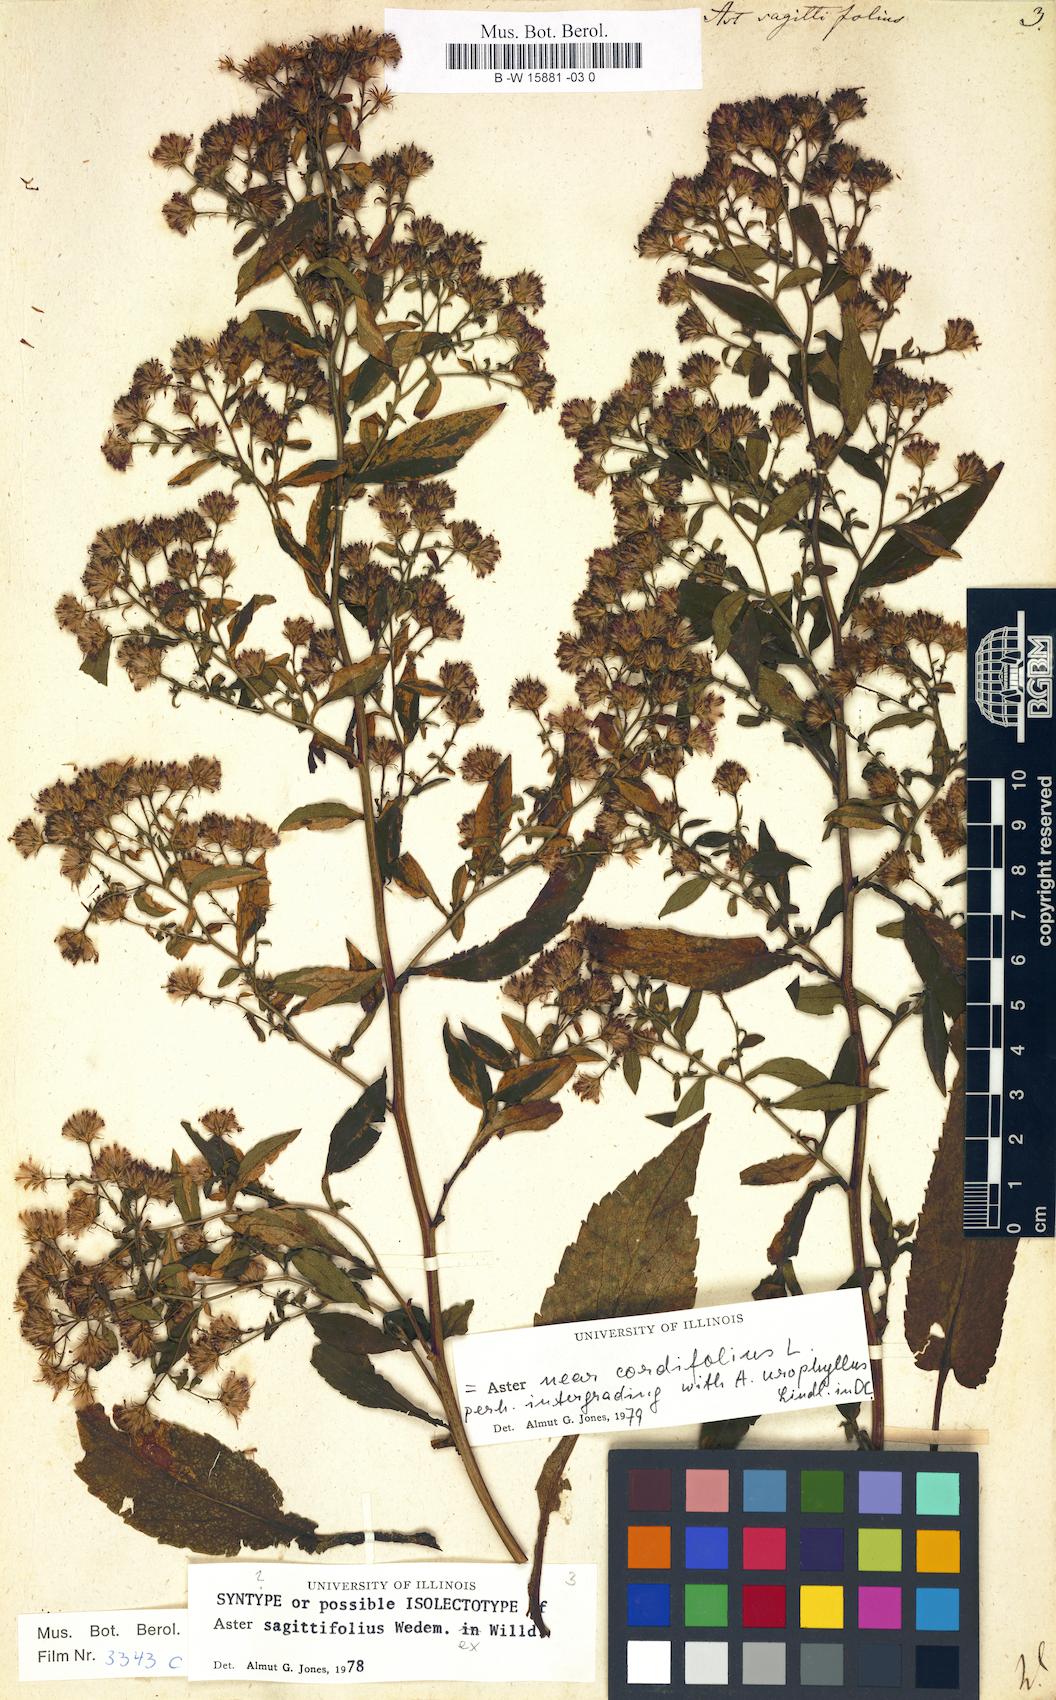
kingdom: Plantae
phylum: Tracheophyta
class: Magnoliopsida
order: Asterales
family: Asteraceae
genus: Symphyotrichum
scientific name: Symphyotrichum cordifolium
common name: Beeweed
